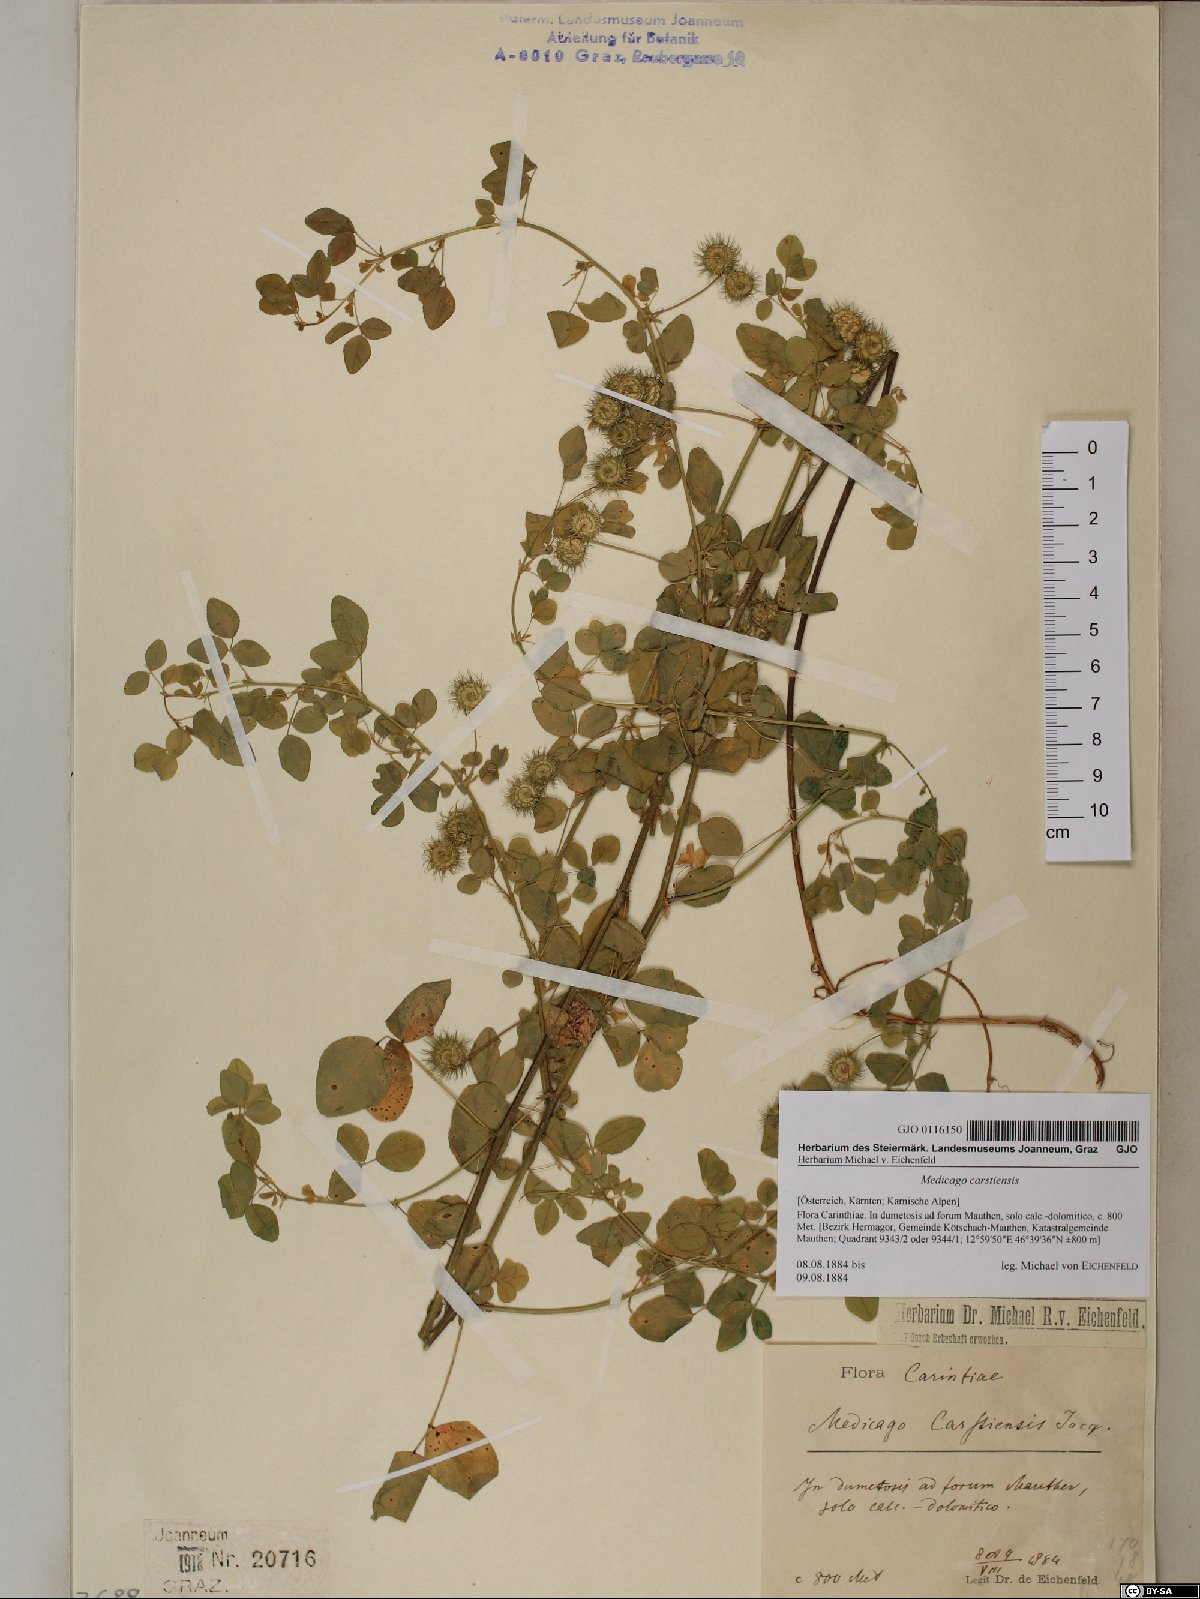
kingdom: Plantae
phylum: Tracheophyta
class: Magnoliopsida
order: Fabales
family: Fabaceae
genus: Medicago
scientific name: Medicago carstiensis
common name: Creeping-rooted medic
